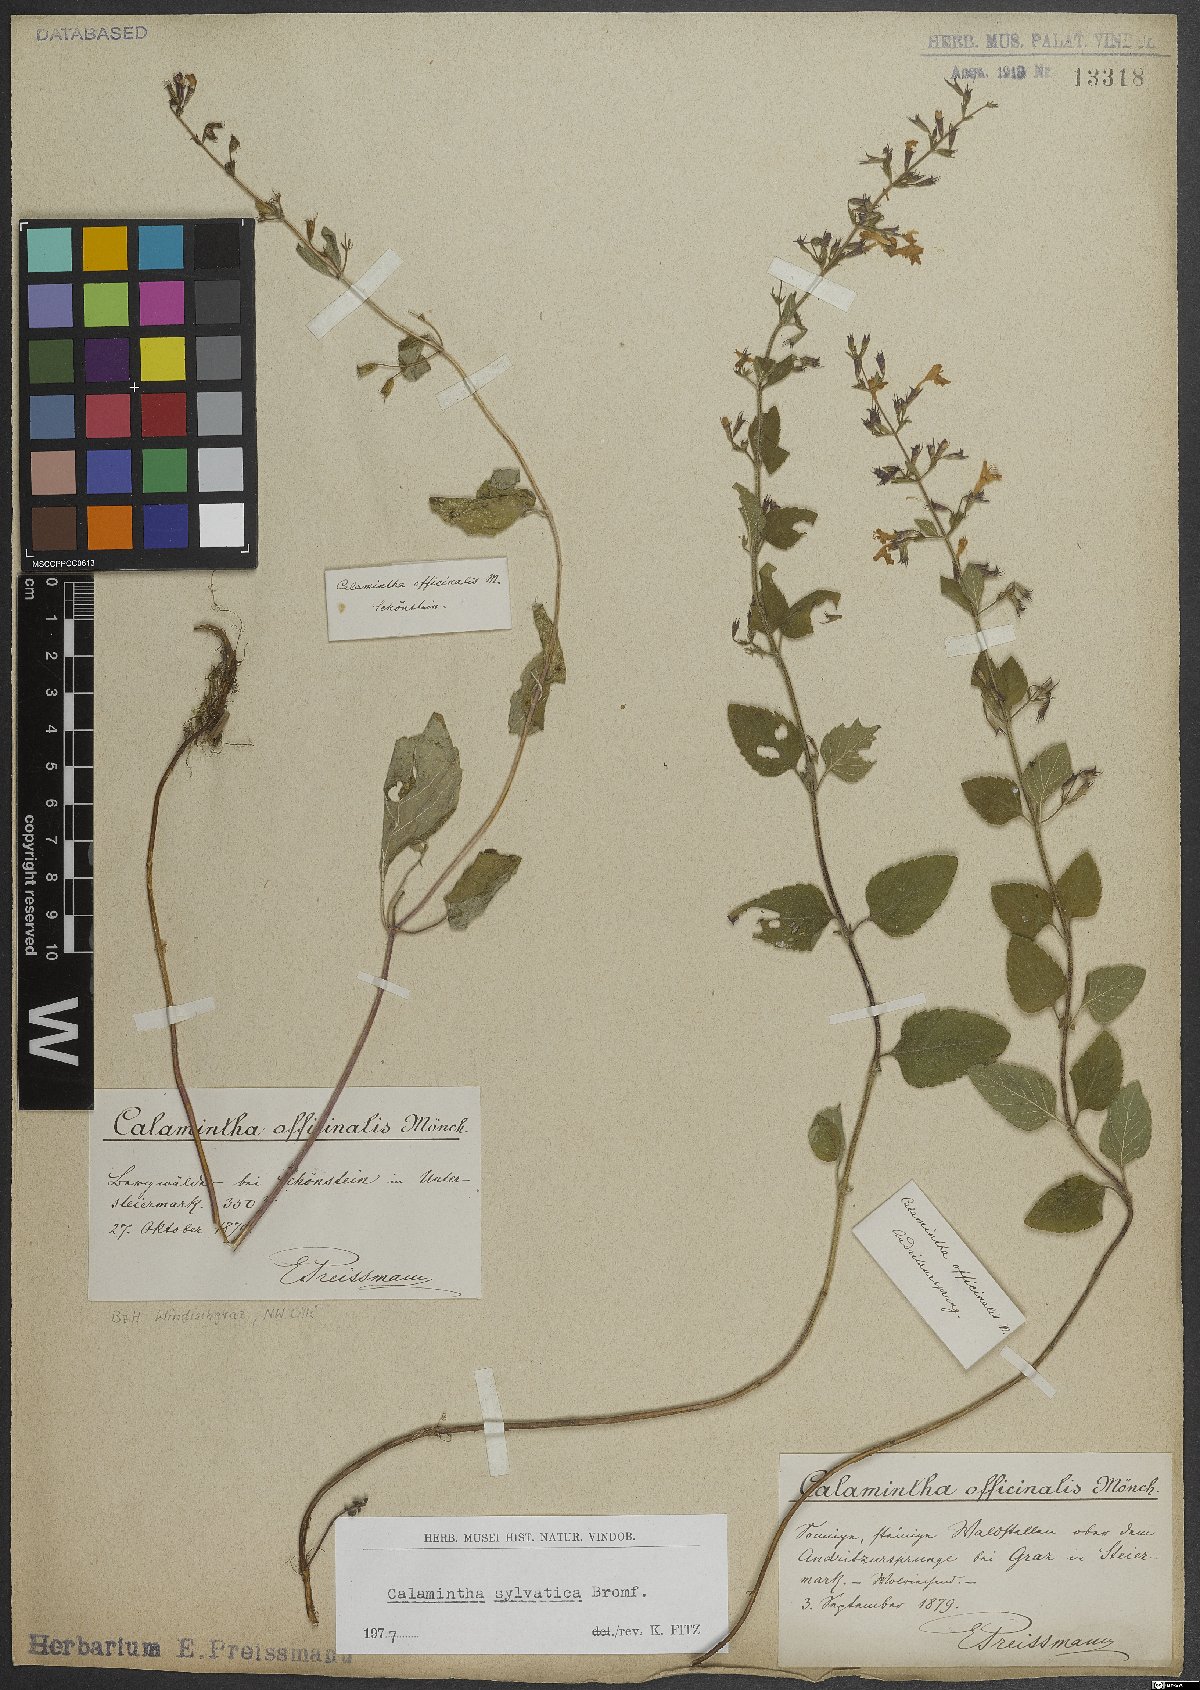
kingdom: Plantae
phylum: Tracheophyta
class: Magnoliopsida
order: Lamiales
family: Lamiaceae
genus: Clinopodium
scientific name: Clinopodium menthifolium
